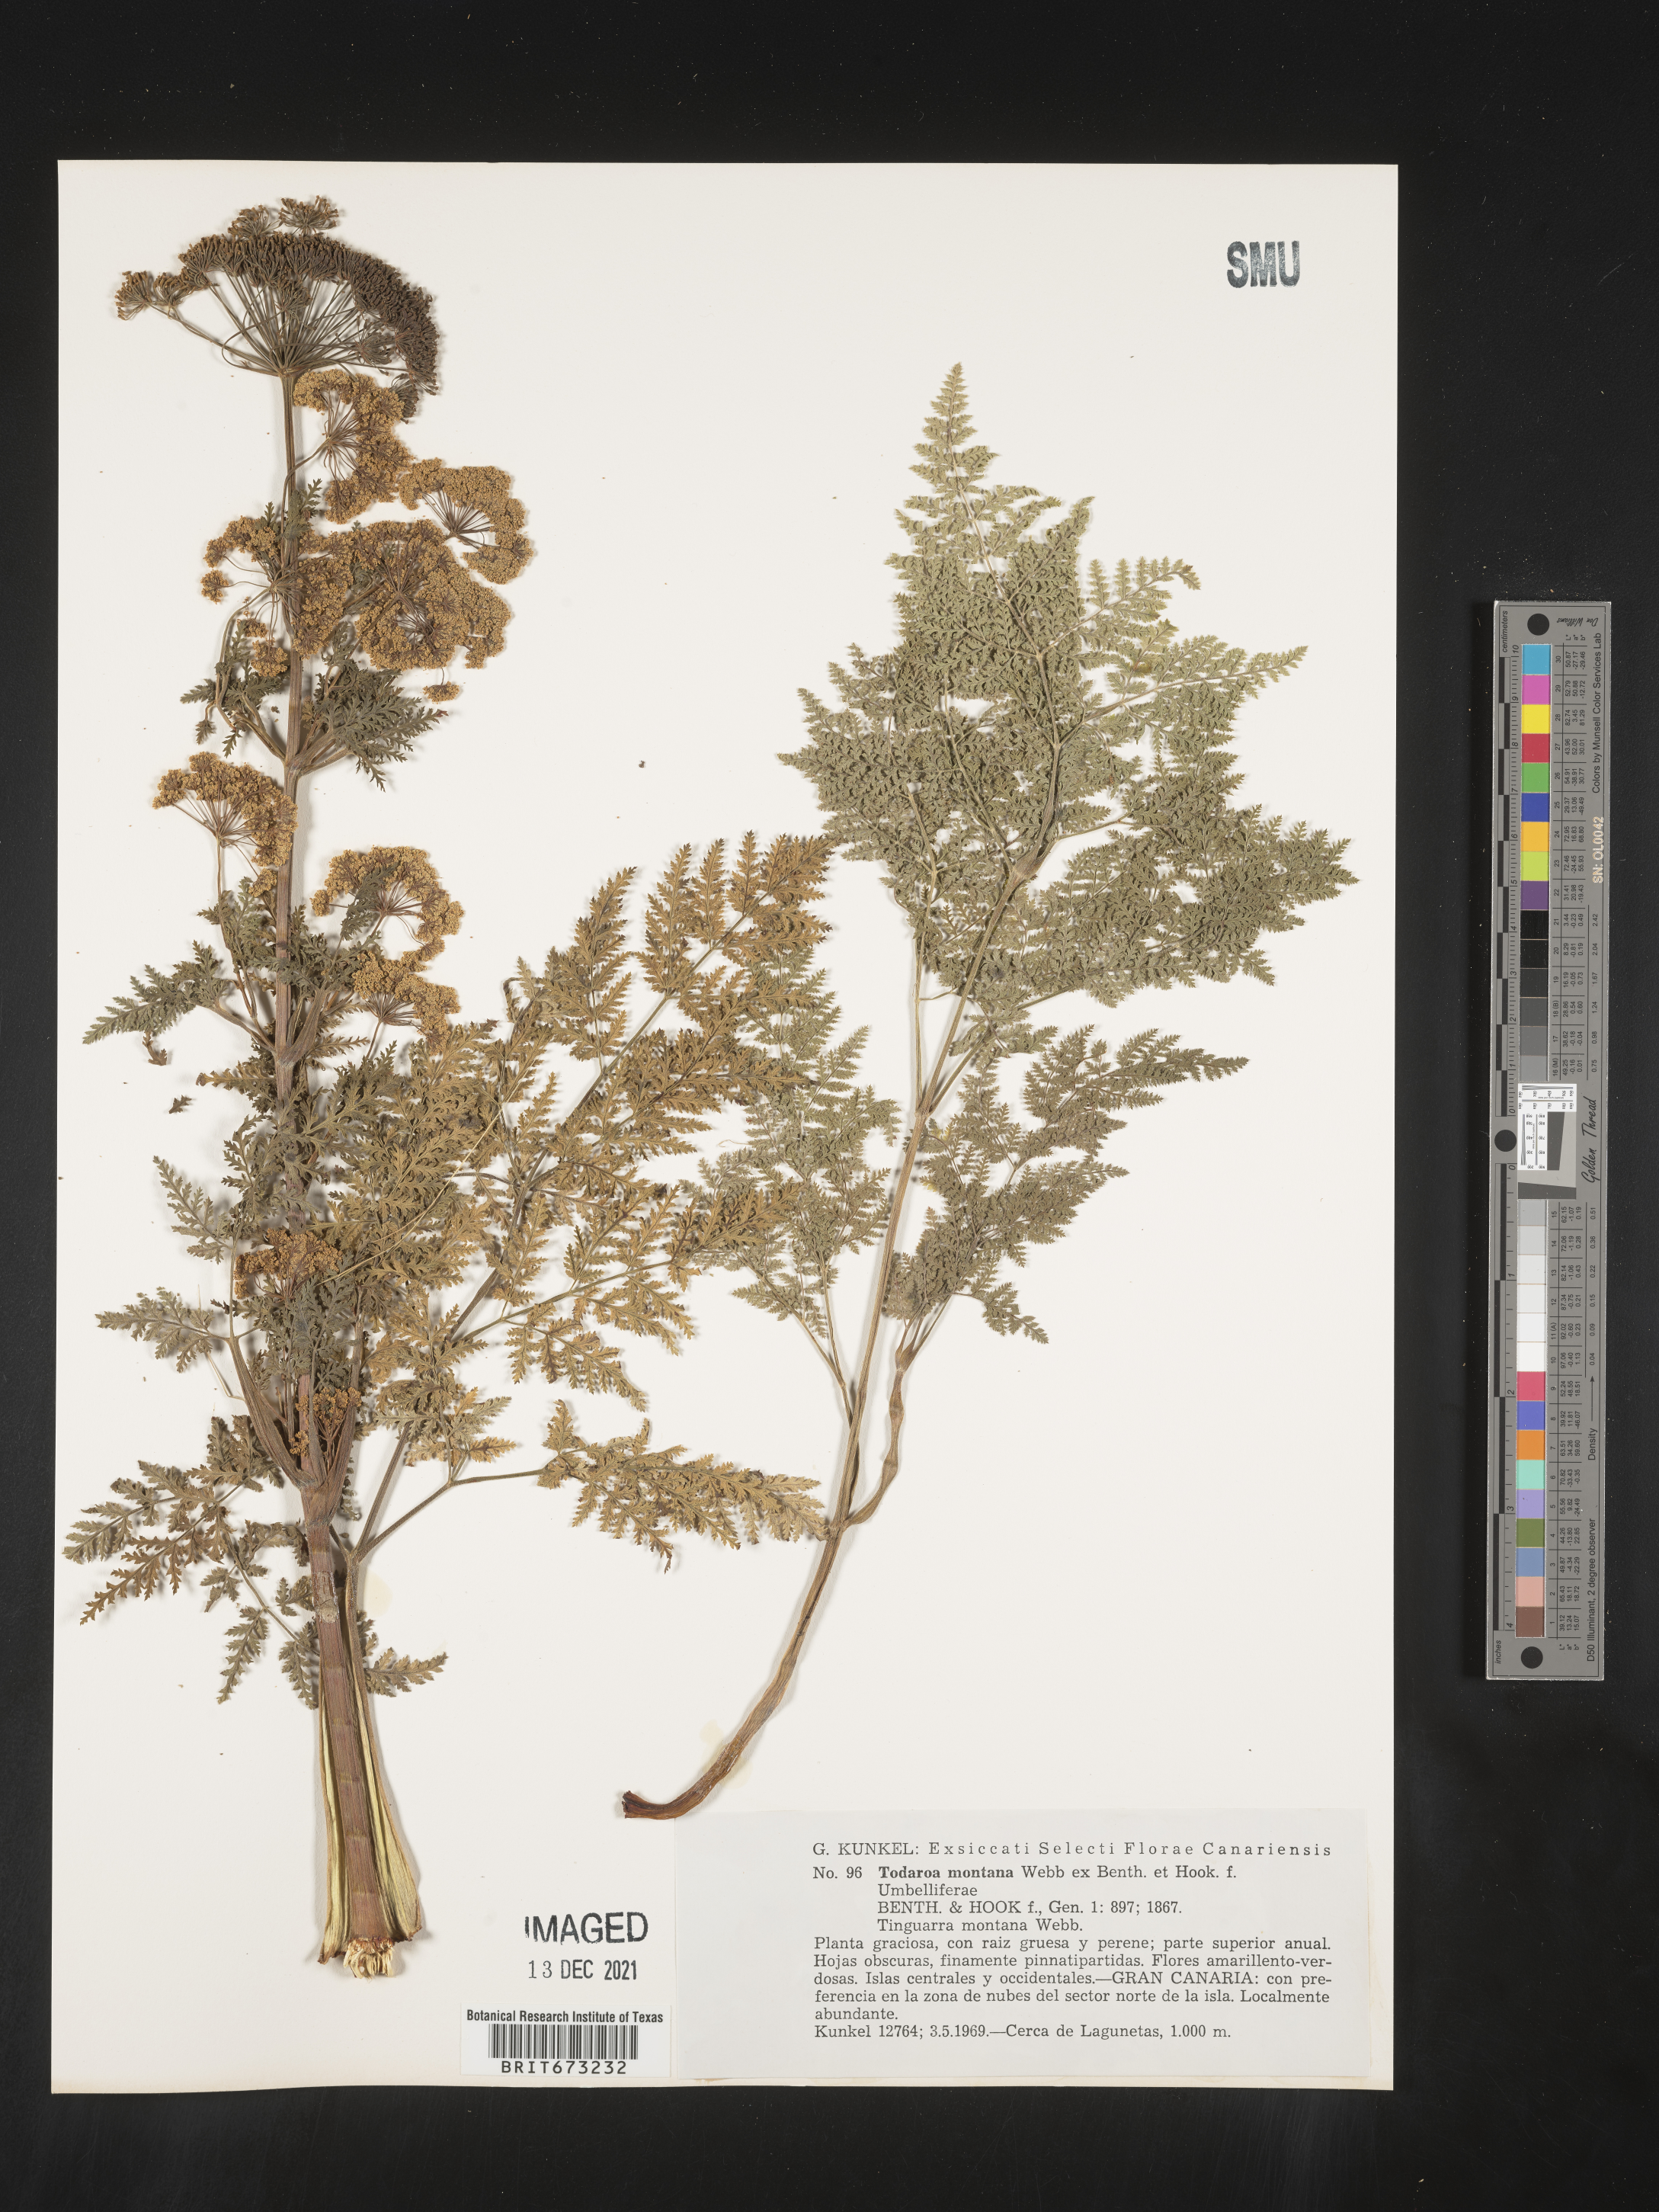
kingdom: Plantae
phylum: Tracheophyta
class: Magnoliopsida
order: Apiales
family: Apiaceae
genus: Todaroa
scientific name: Todaroa
